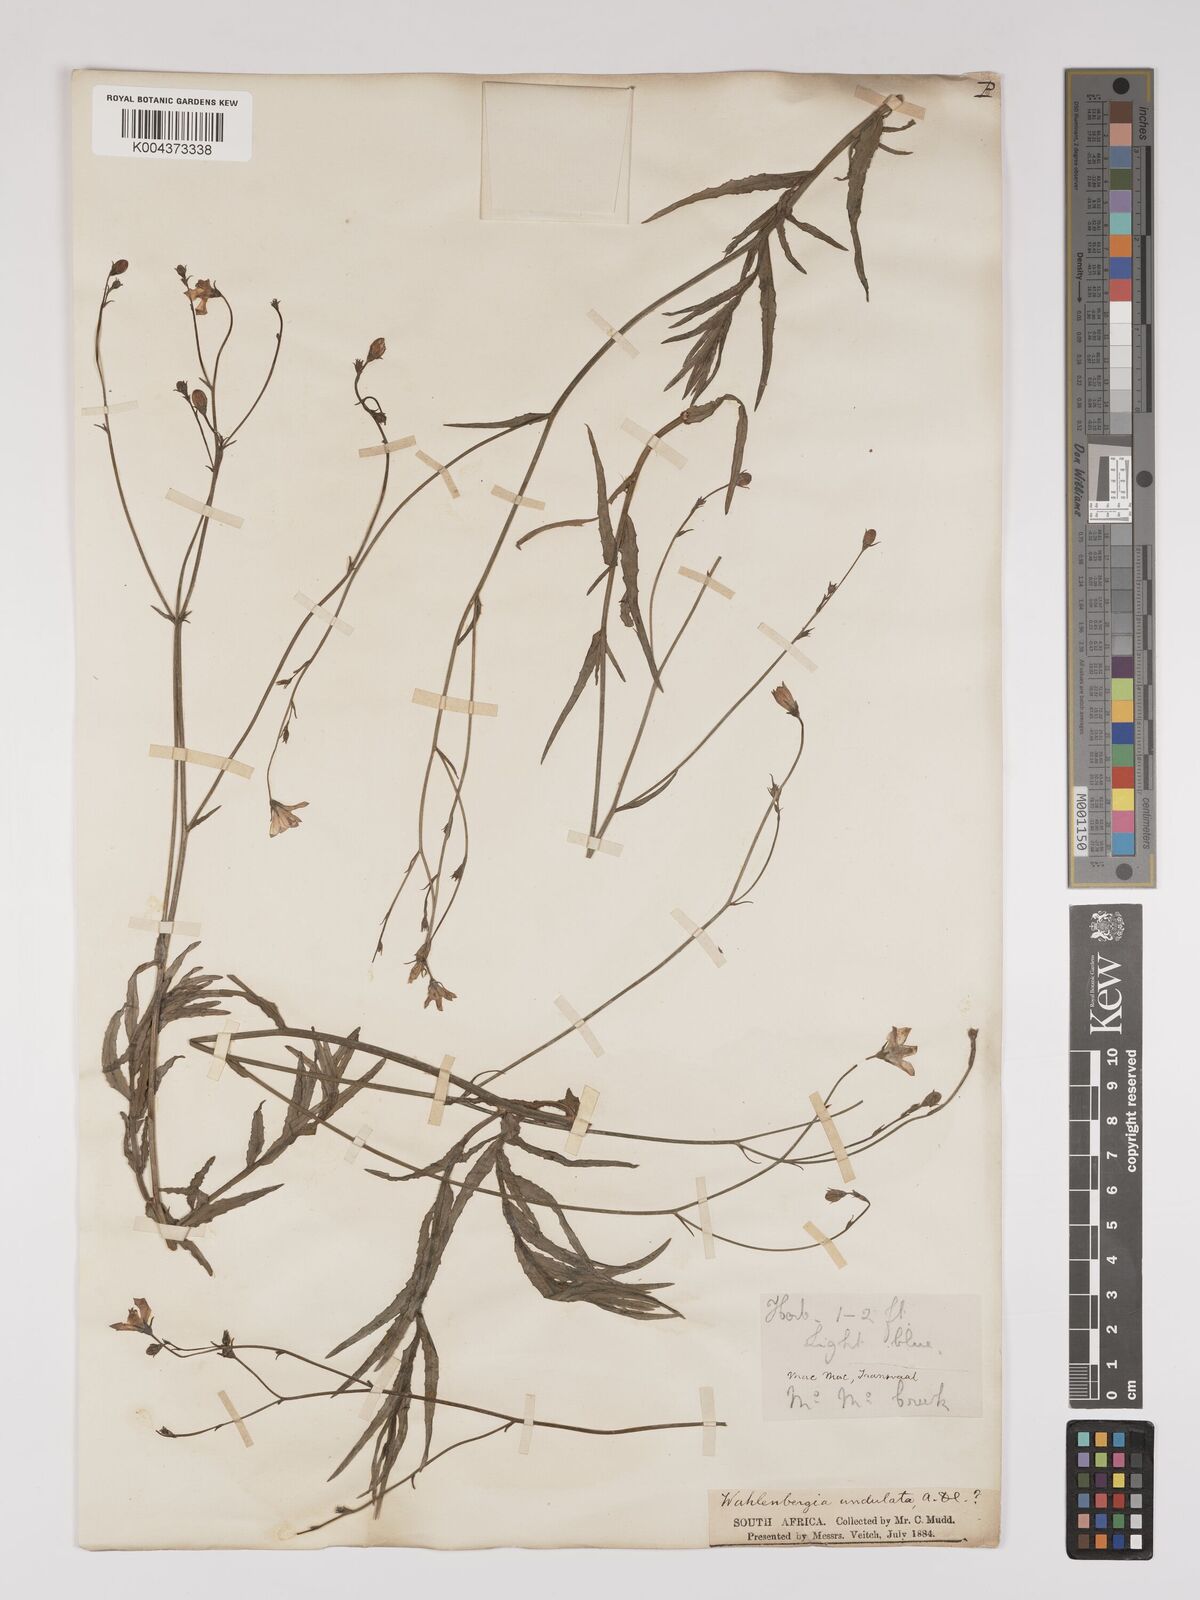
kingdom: Plantae
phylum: Tracheophyta
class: Magnoliopsida
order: Asterales
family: Campanulaceae
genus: Wahlenbergia
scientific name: Wahlenbergia undulata
